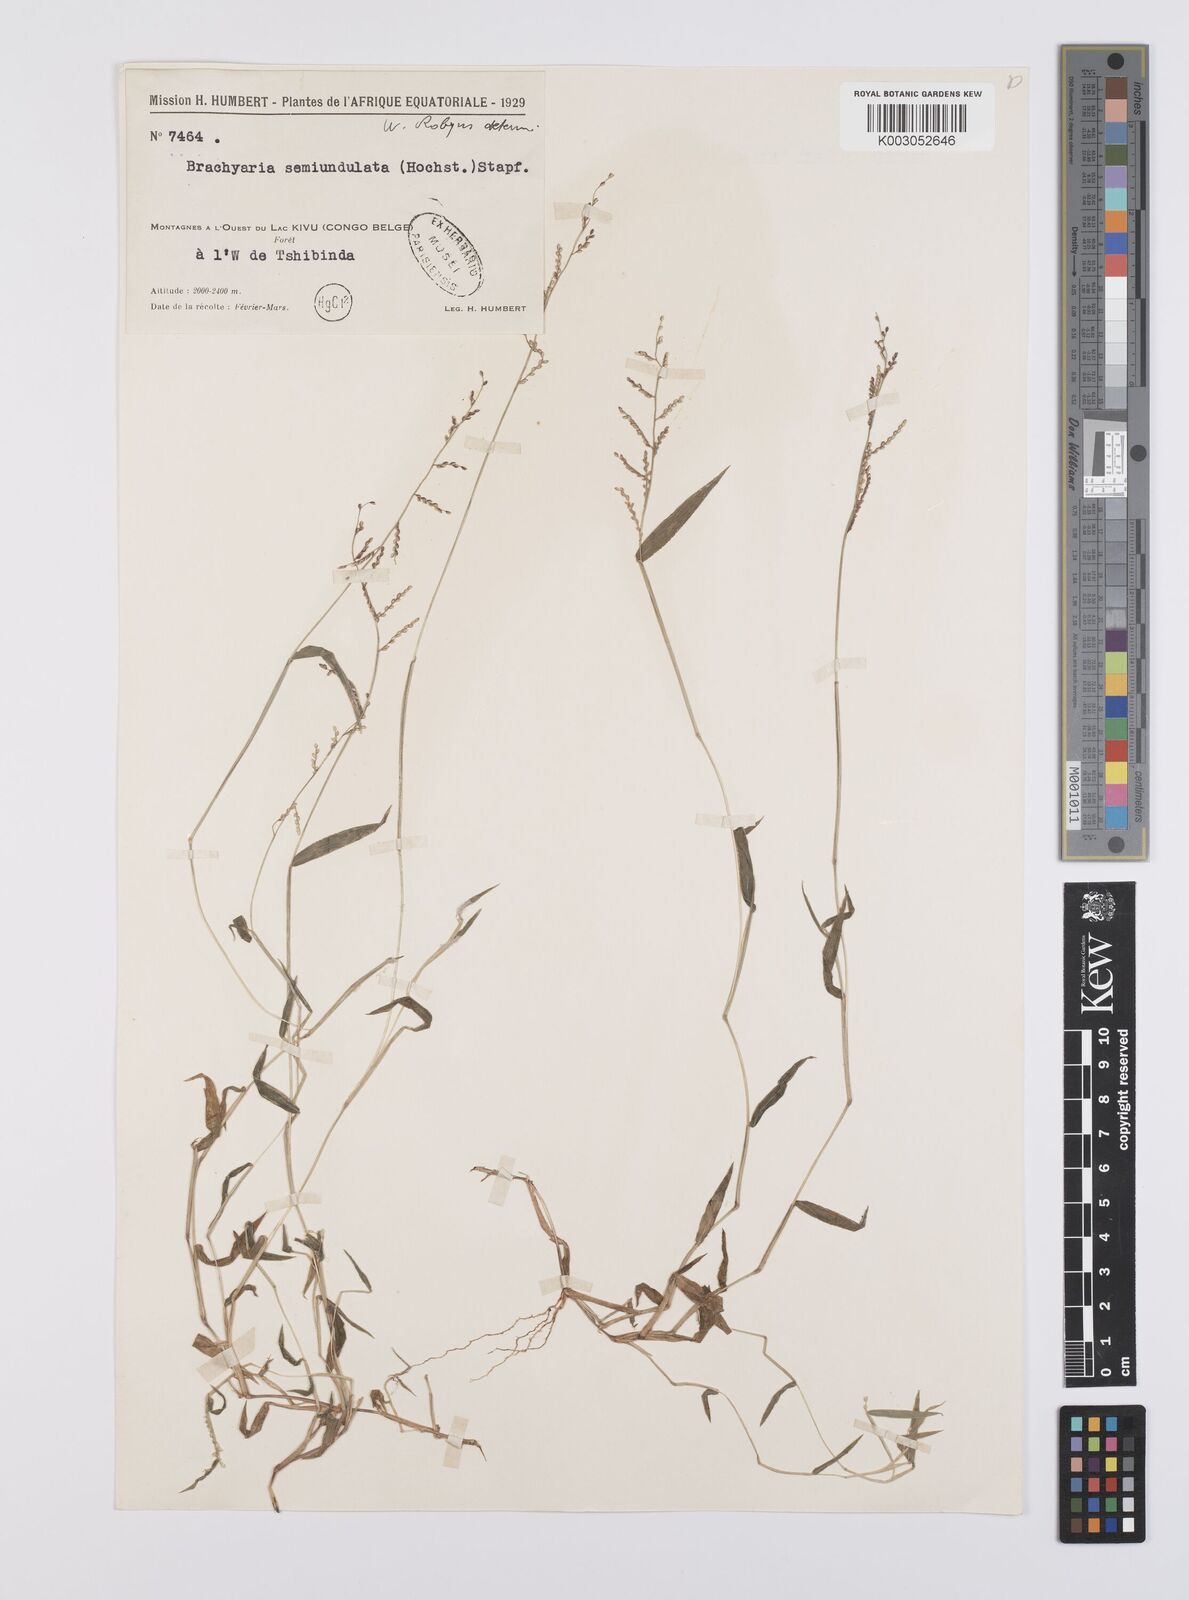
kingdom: Plantae
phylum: Tracheophyta
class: Liliopsida
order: Poales
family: Poaceae
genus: Urochloa
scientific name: Urochloa comata
